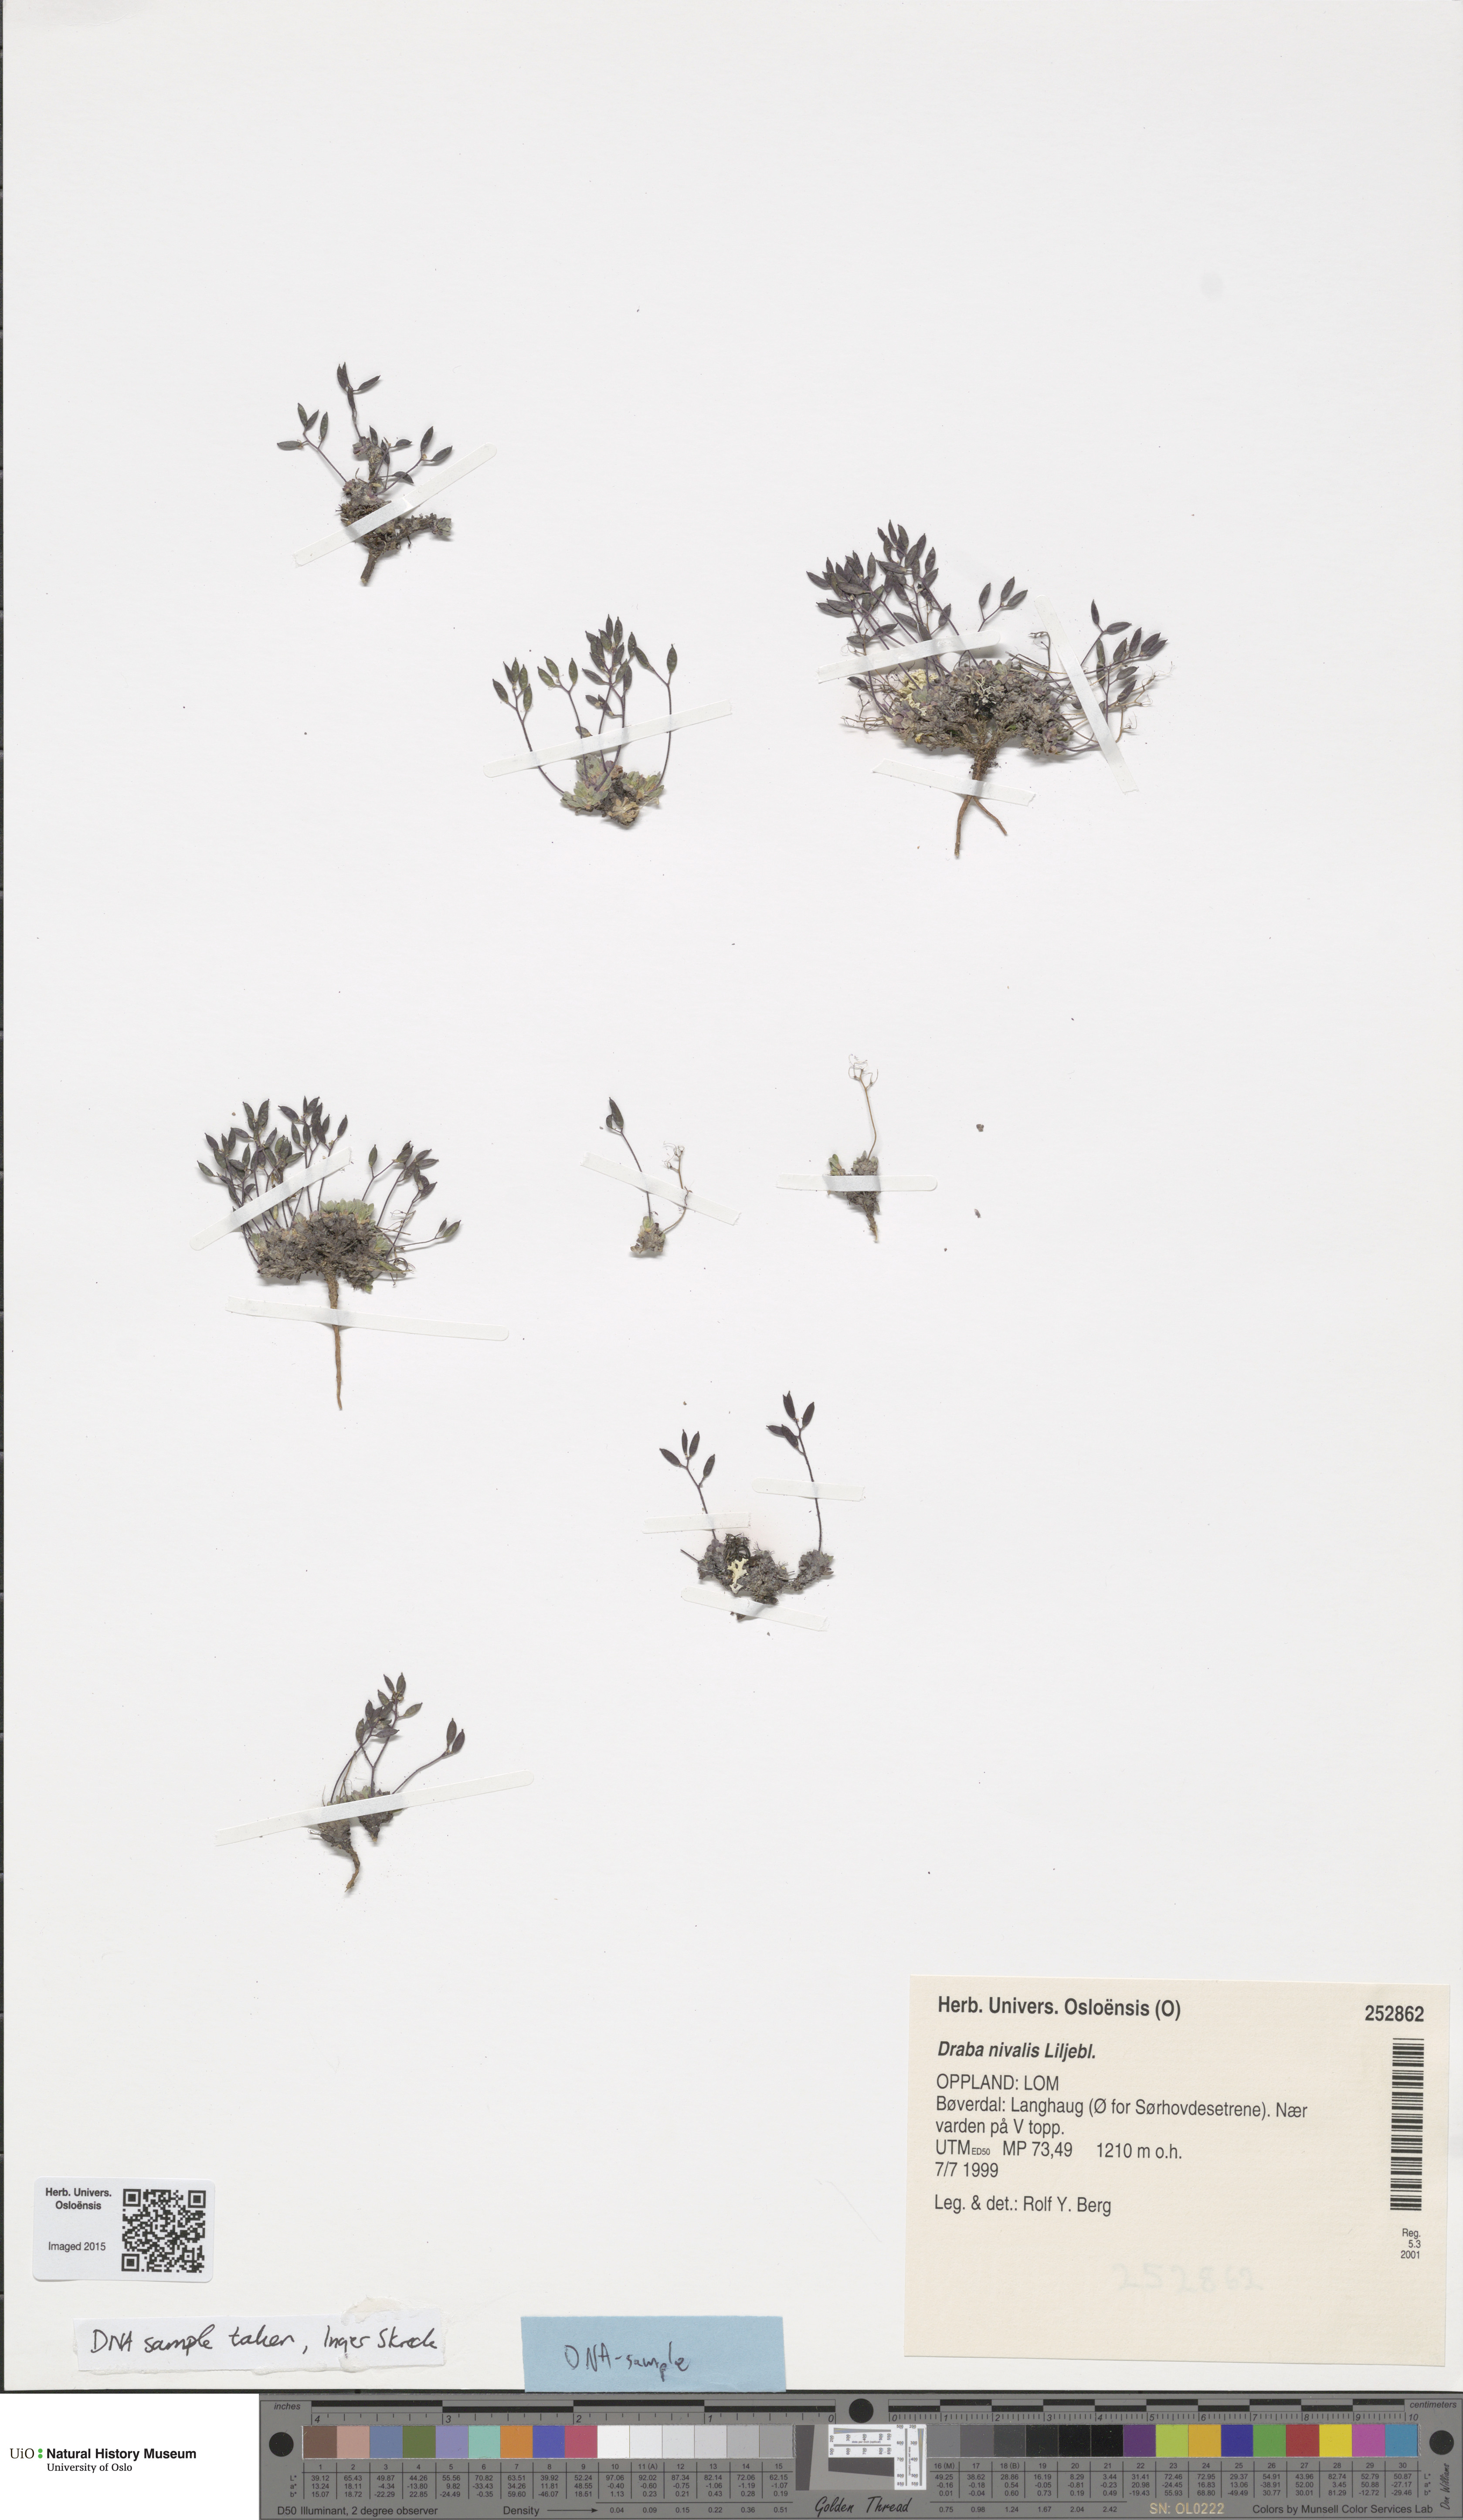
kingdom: Plantae
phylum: Tracheophyta
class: Magnoliopsida
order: Brassicales
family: Brassicaceae
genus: Draba
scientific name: Draba nivalis
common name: Snow draba
